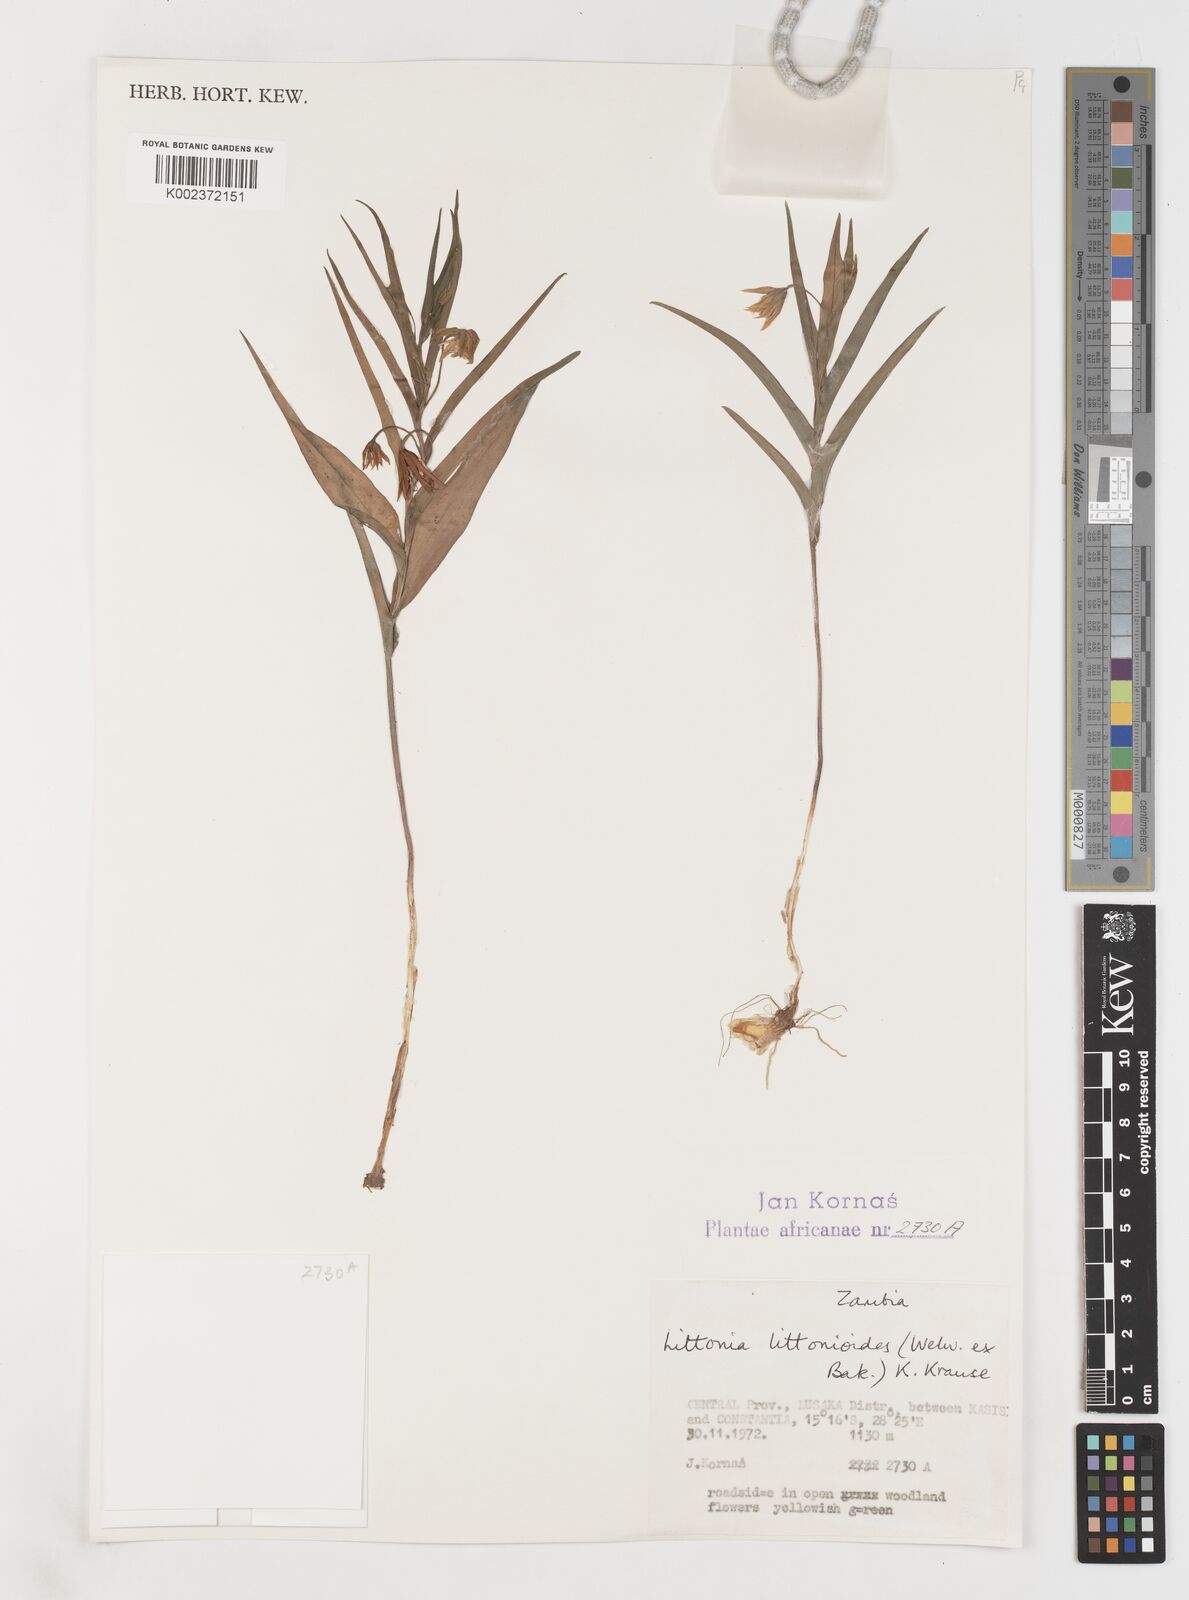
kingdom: Plantae
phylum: Tracheophyta
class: Liliopsida
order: Liliales
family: Colchicaceae
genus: Gloriosa
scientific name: Gloriosa littonioides
